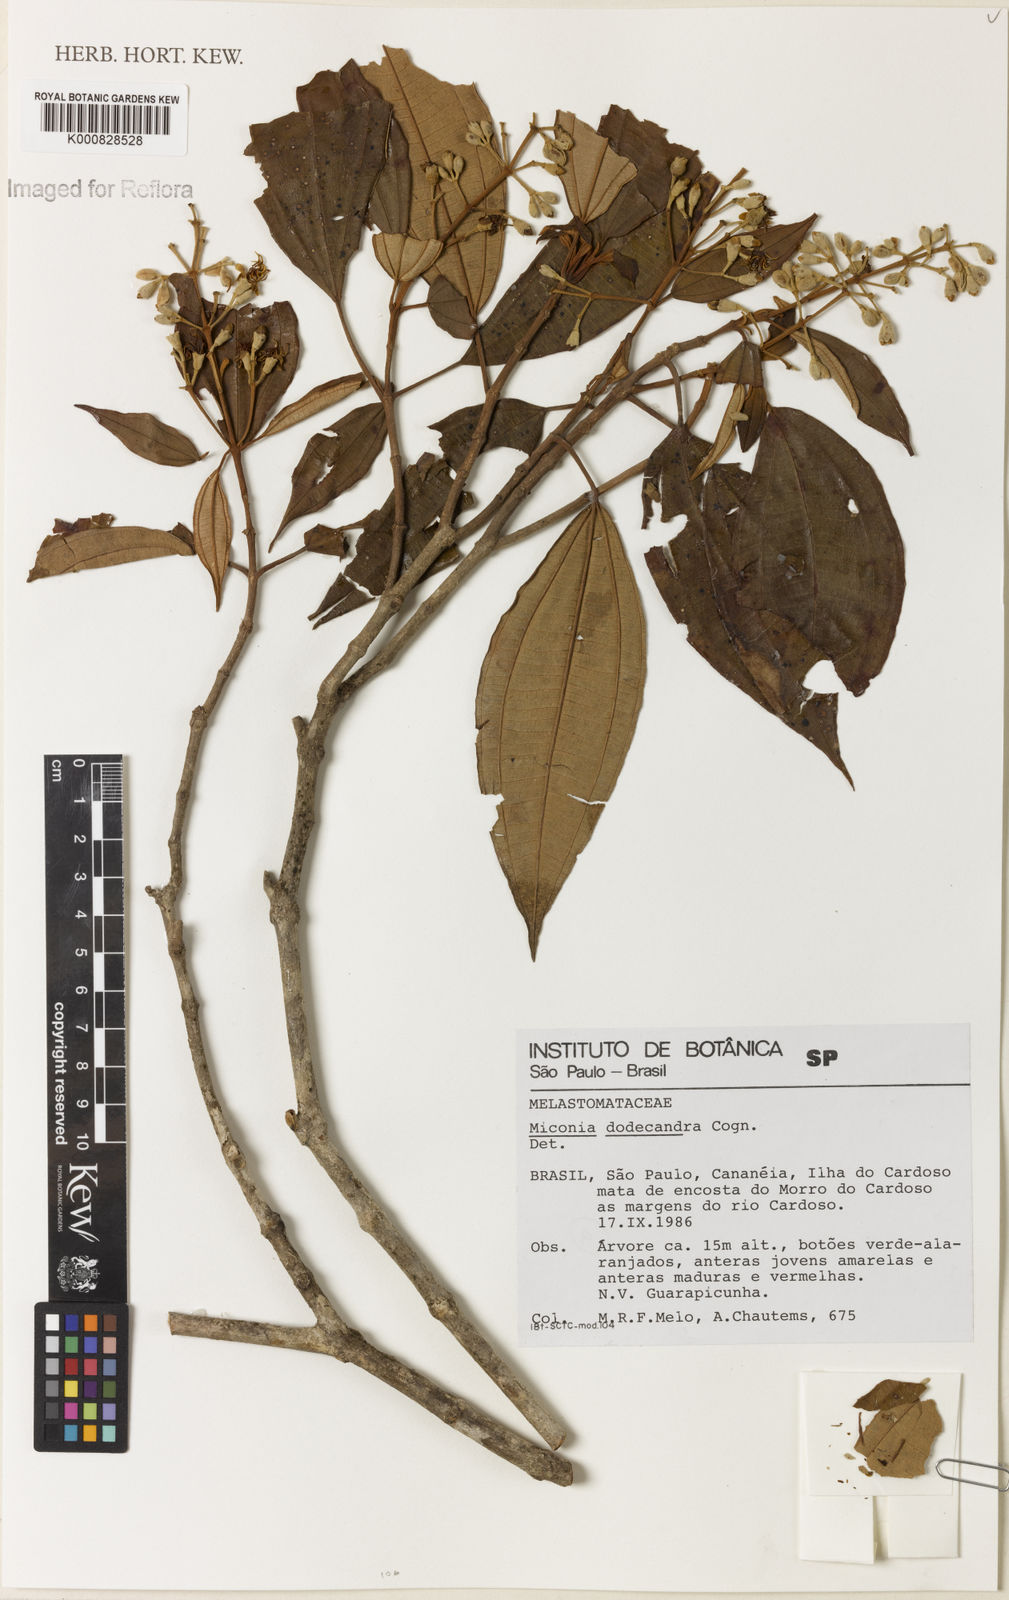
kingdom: Plantae
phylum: Tracheophyta
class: Magnoliopsida
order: Myrtales
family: Melastomataceae
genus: Miconia
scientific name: Miconia dodecandra
